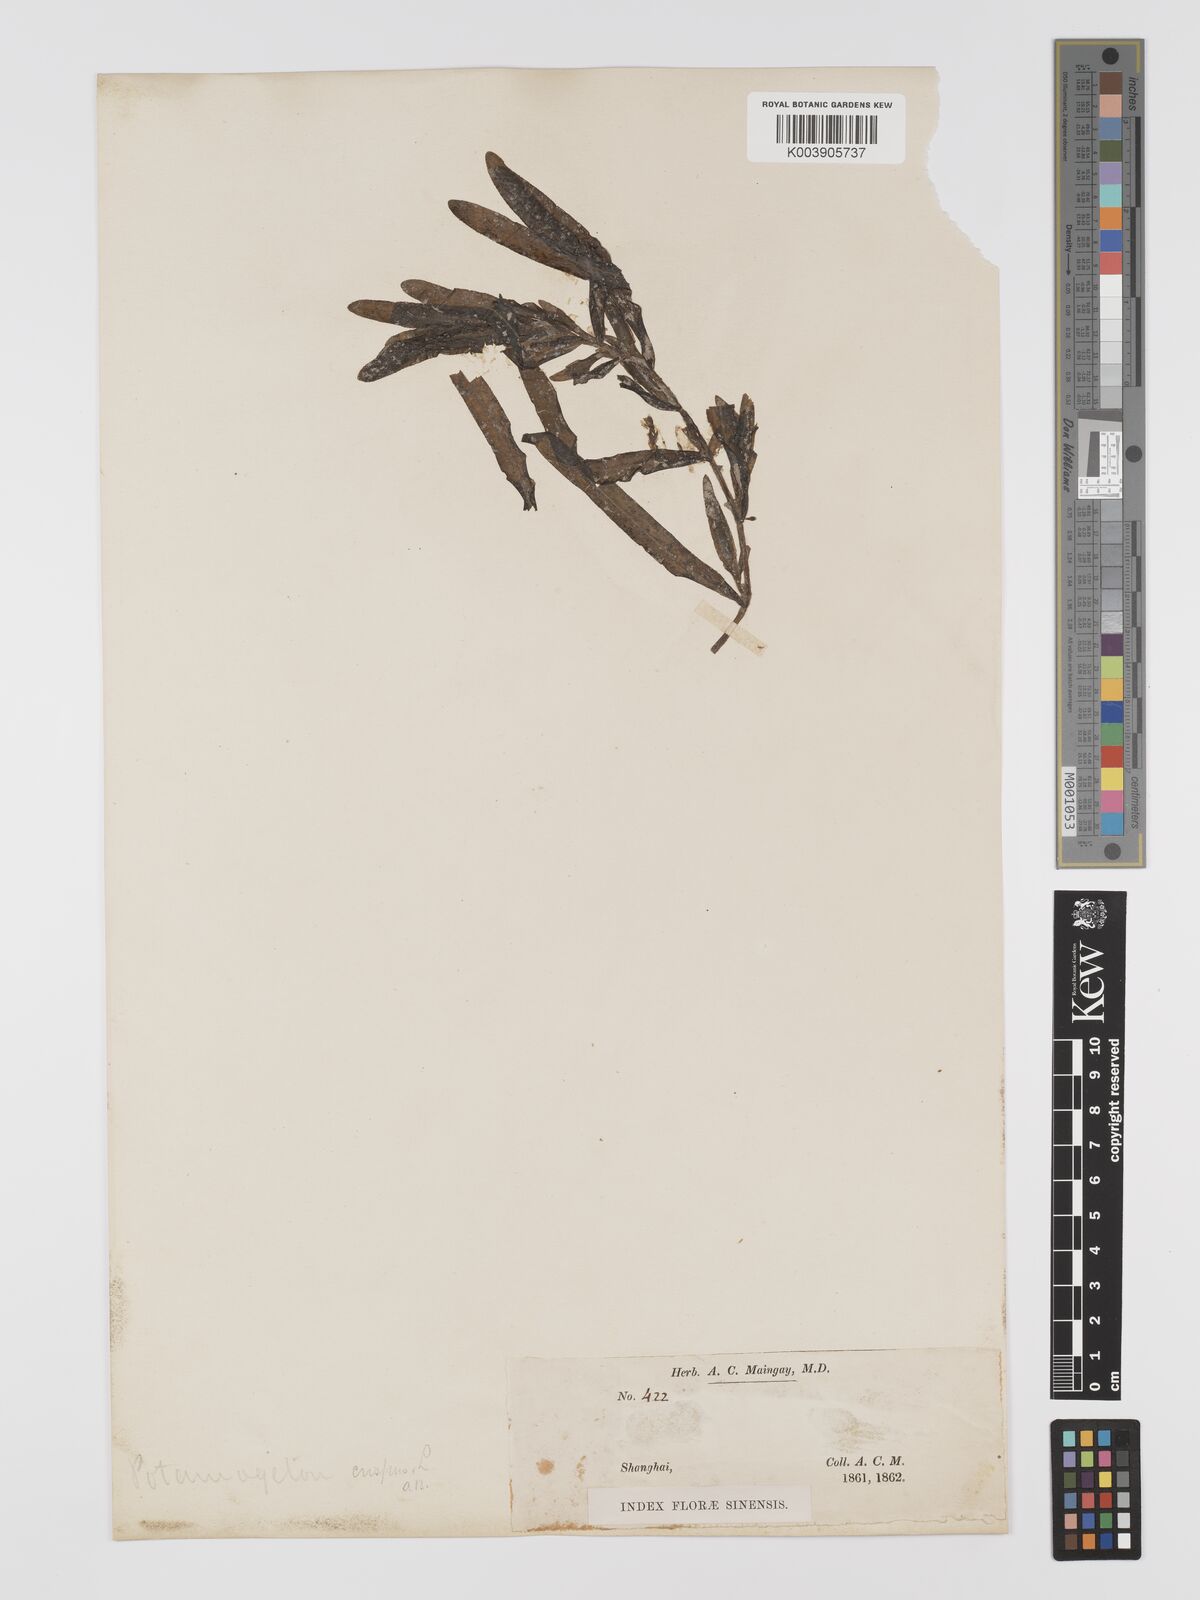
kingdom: Plantae
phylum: Tracheophyta
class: Liliopsida
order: Alismatales
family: Potamogetonaceae
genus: Potamogeton
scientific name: Potamogeton crispus
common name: Curled pondweed
